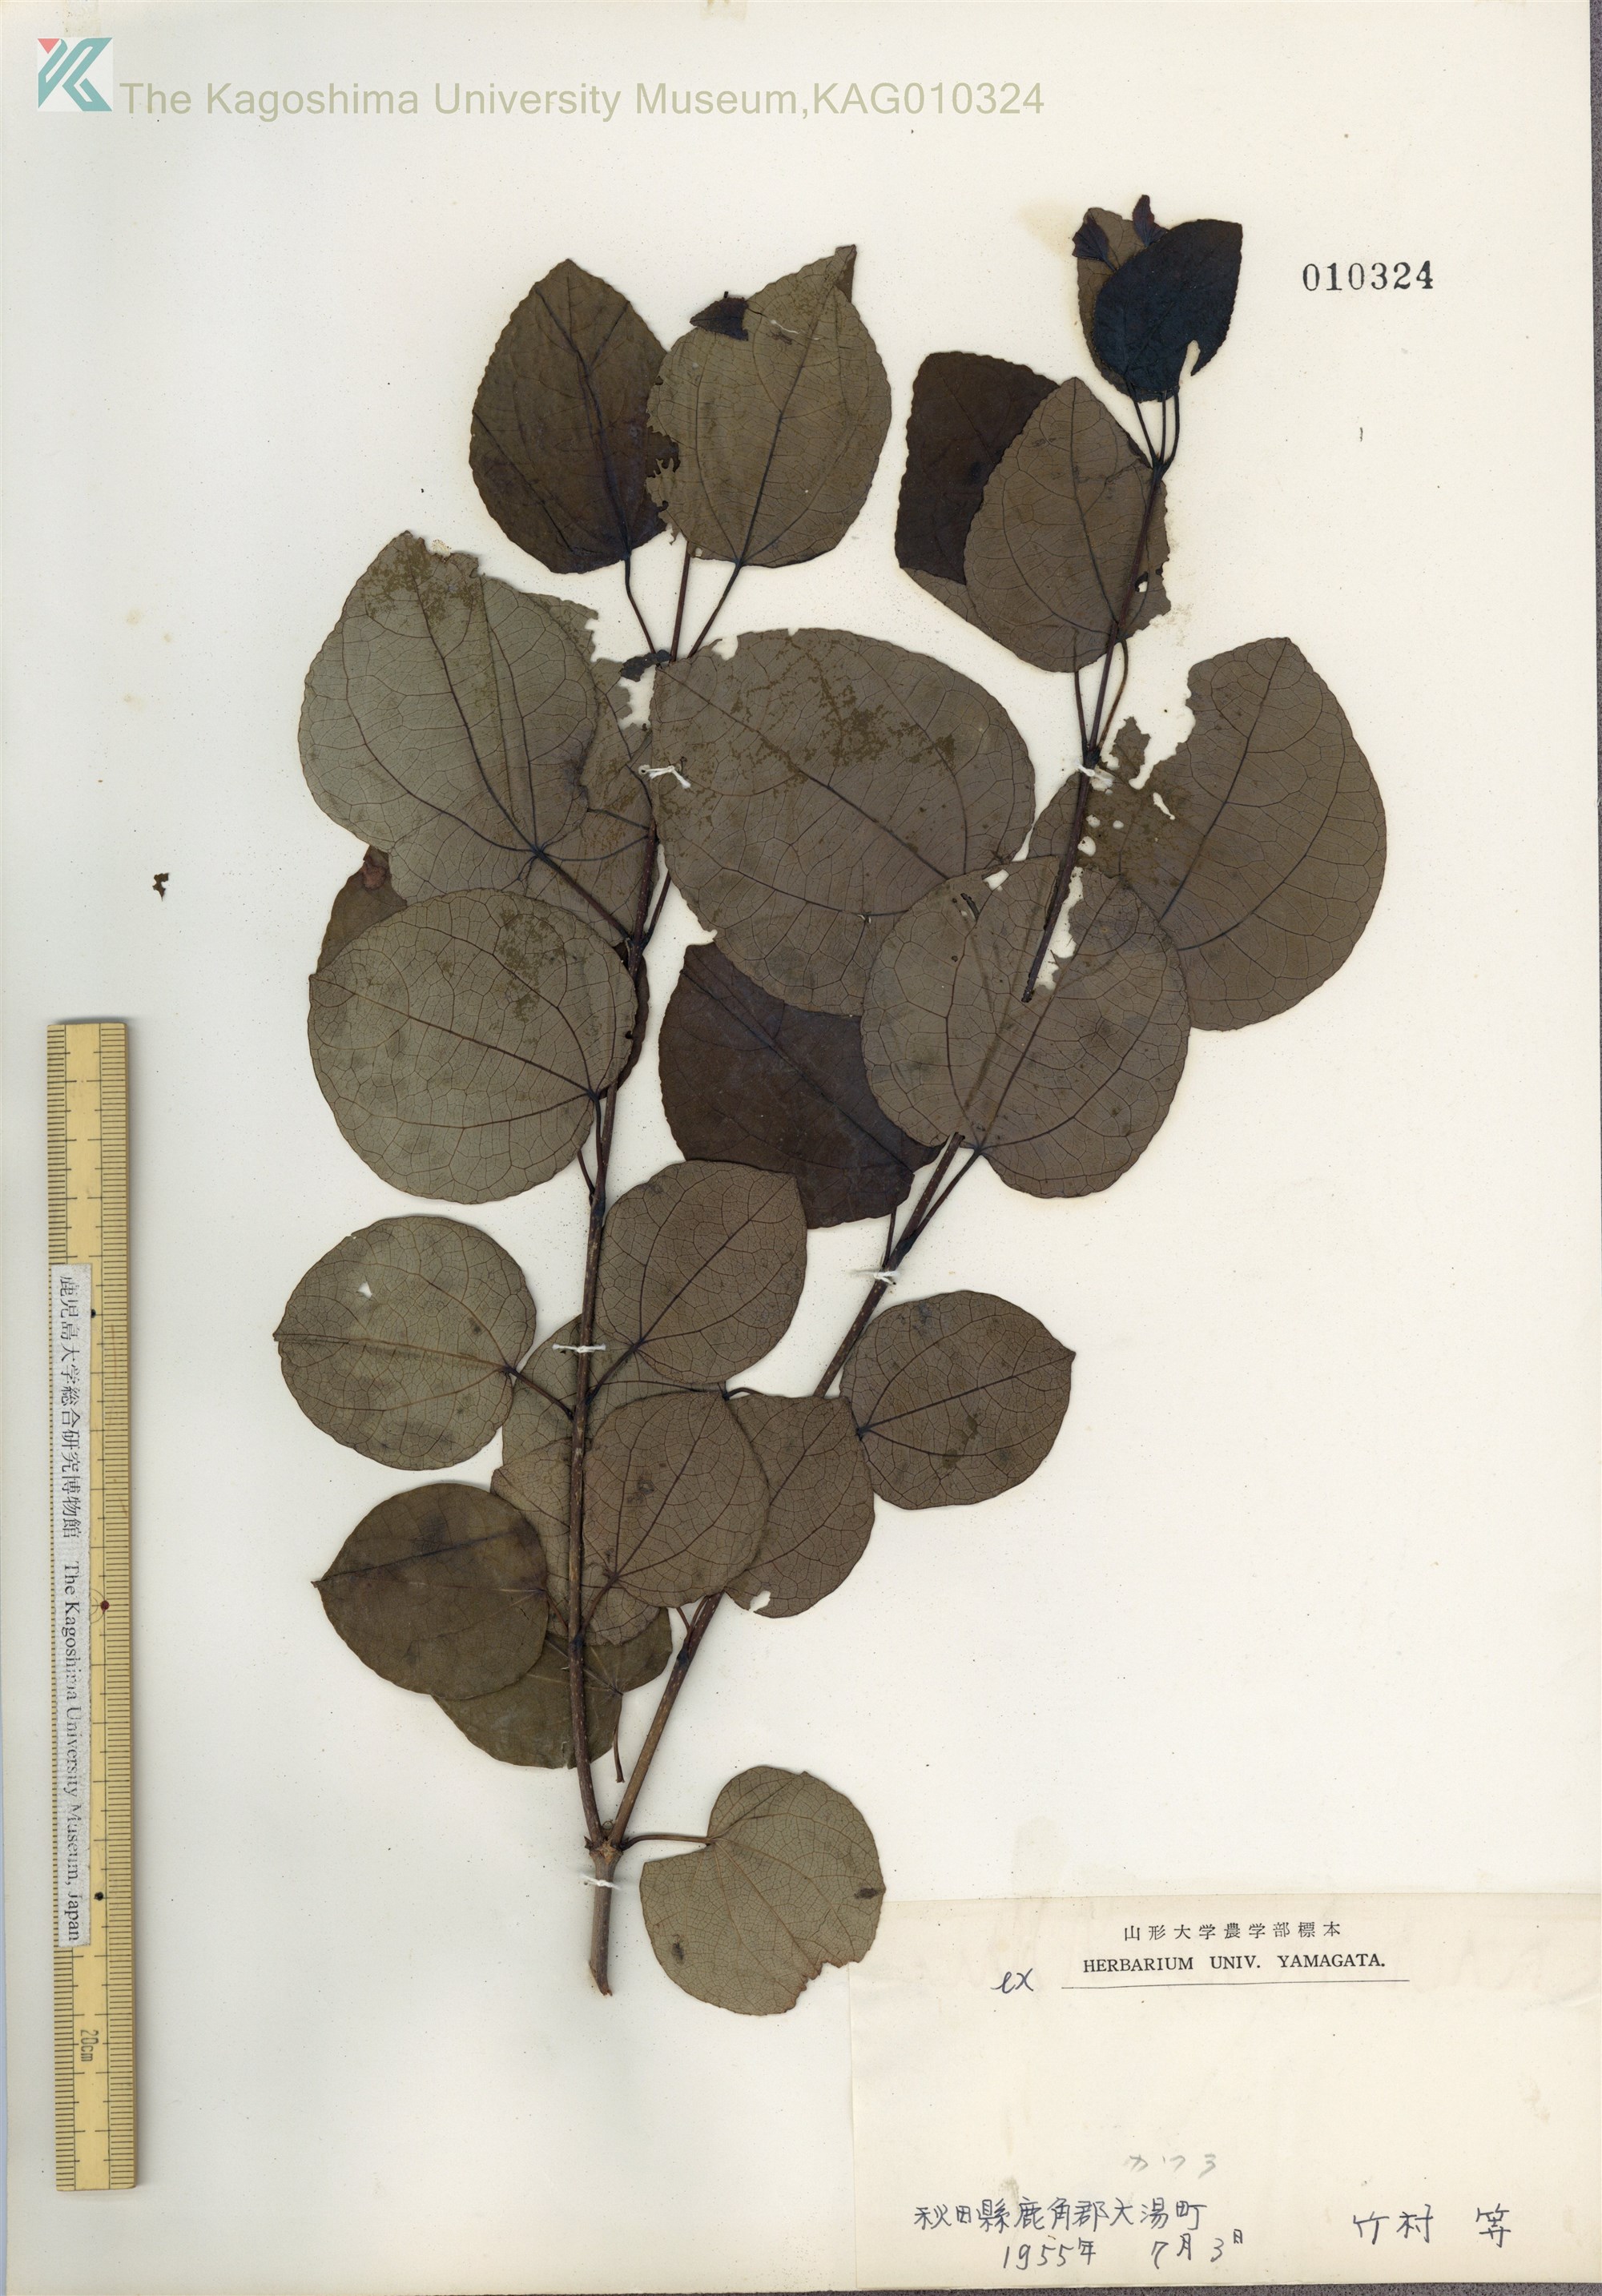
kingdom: Plantae
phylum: Tracheophyta
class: Magnoliopsida
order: Saxifragales
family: Cercidiphyllaceae
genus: Cercidiphyllum
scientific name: Cercidiphyllum japonicum
